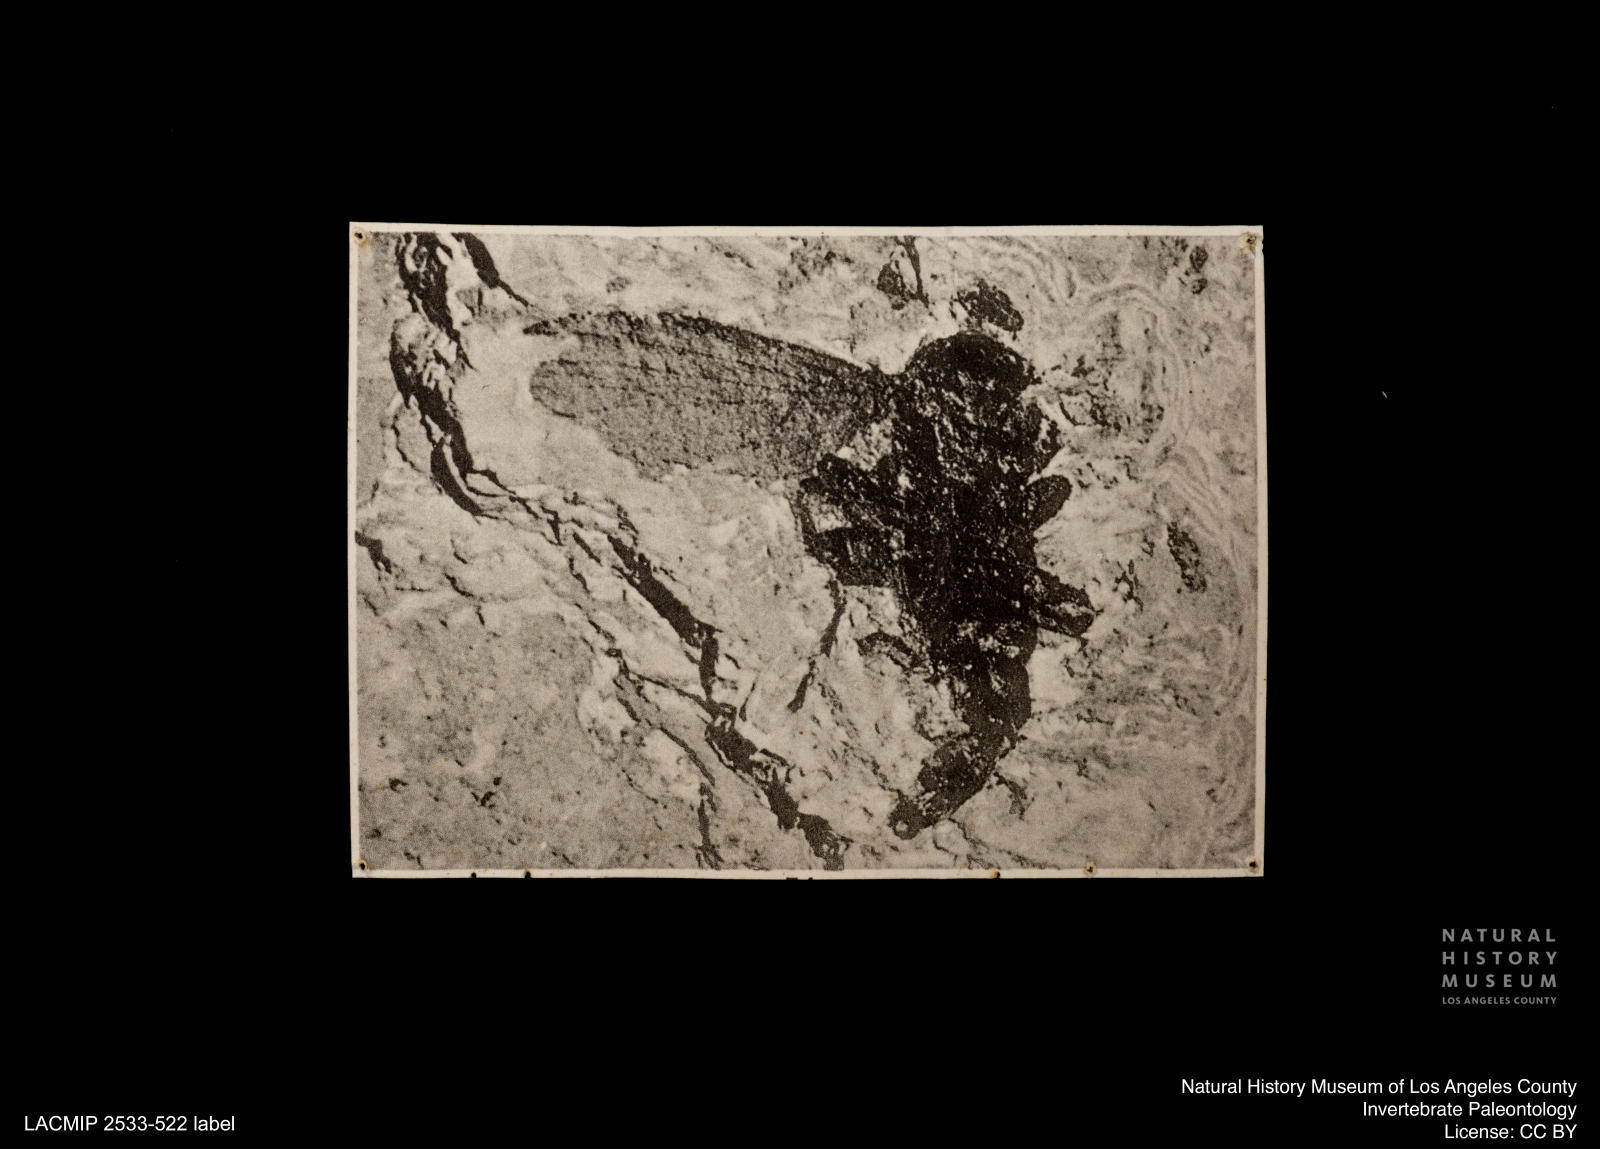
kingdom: Animalia
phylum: Arthropoda
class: Insecta
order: Diptera
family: Pleciofungivoridae
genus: Fungivorites
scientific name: Fungivorites problematicum
